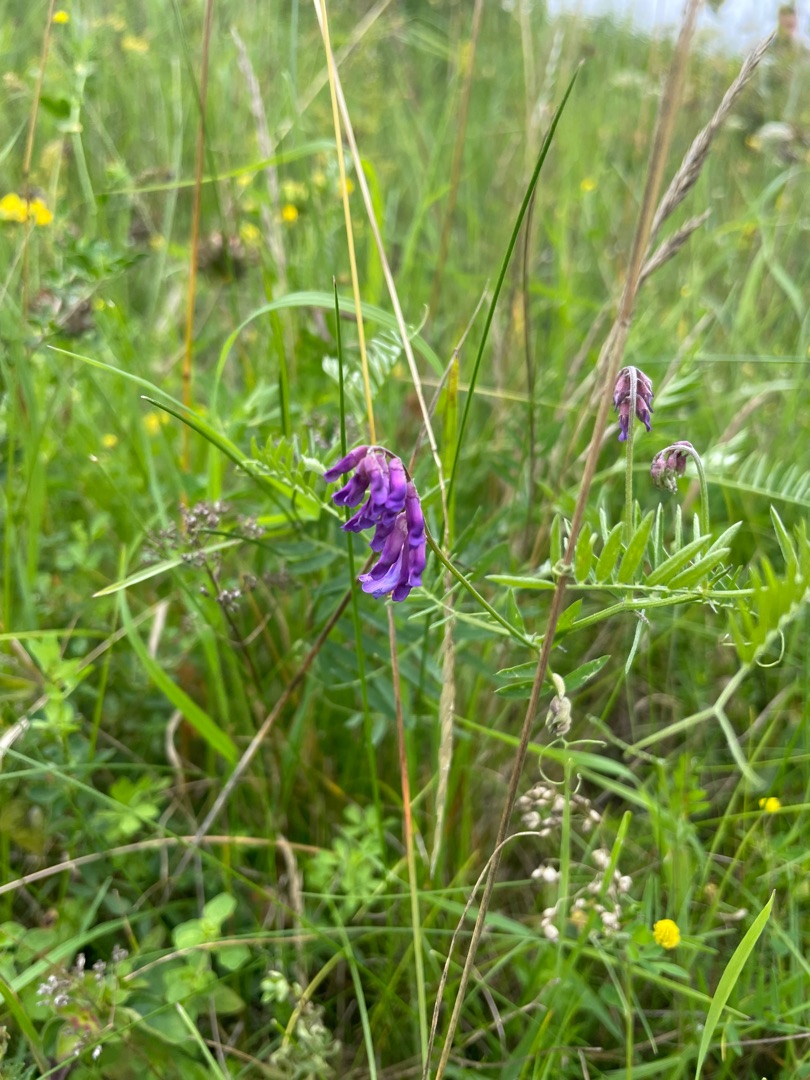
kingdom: Plantae
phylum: Tracheophyta
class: Magnoliopsida
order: Fabales
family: Fabaceae
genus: Vicia
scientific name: Vicia cracca
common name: Muse-vikke
